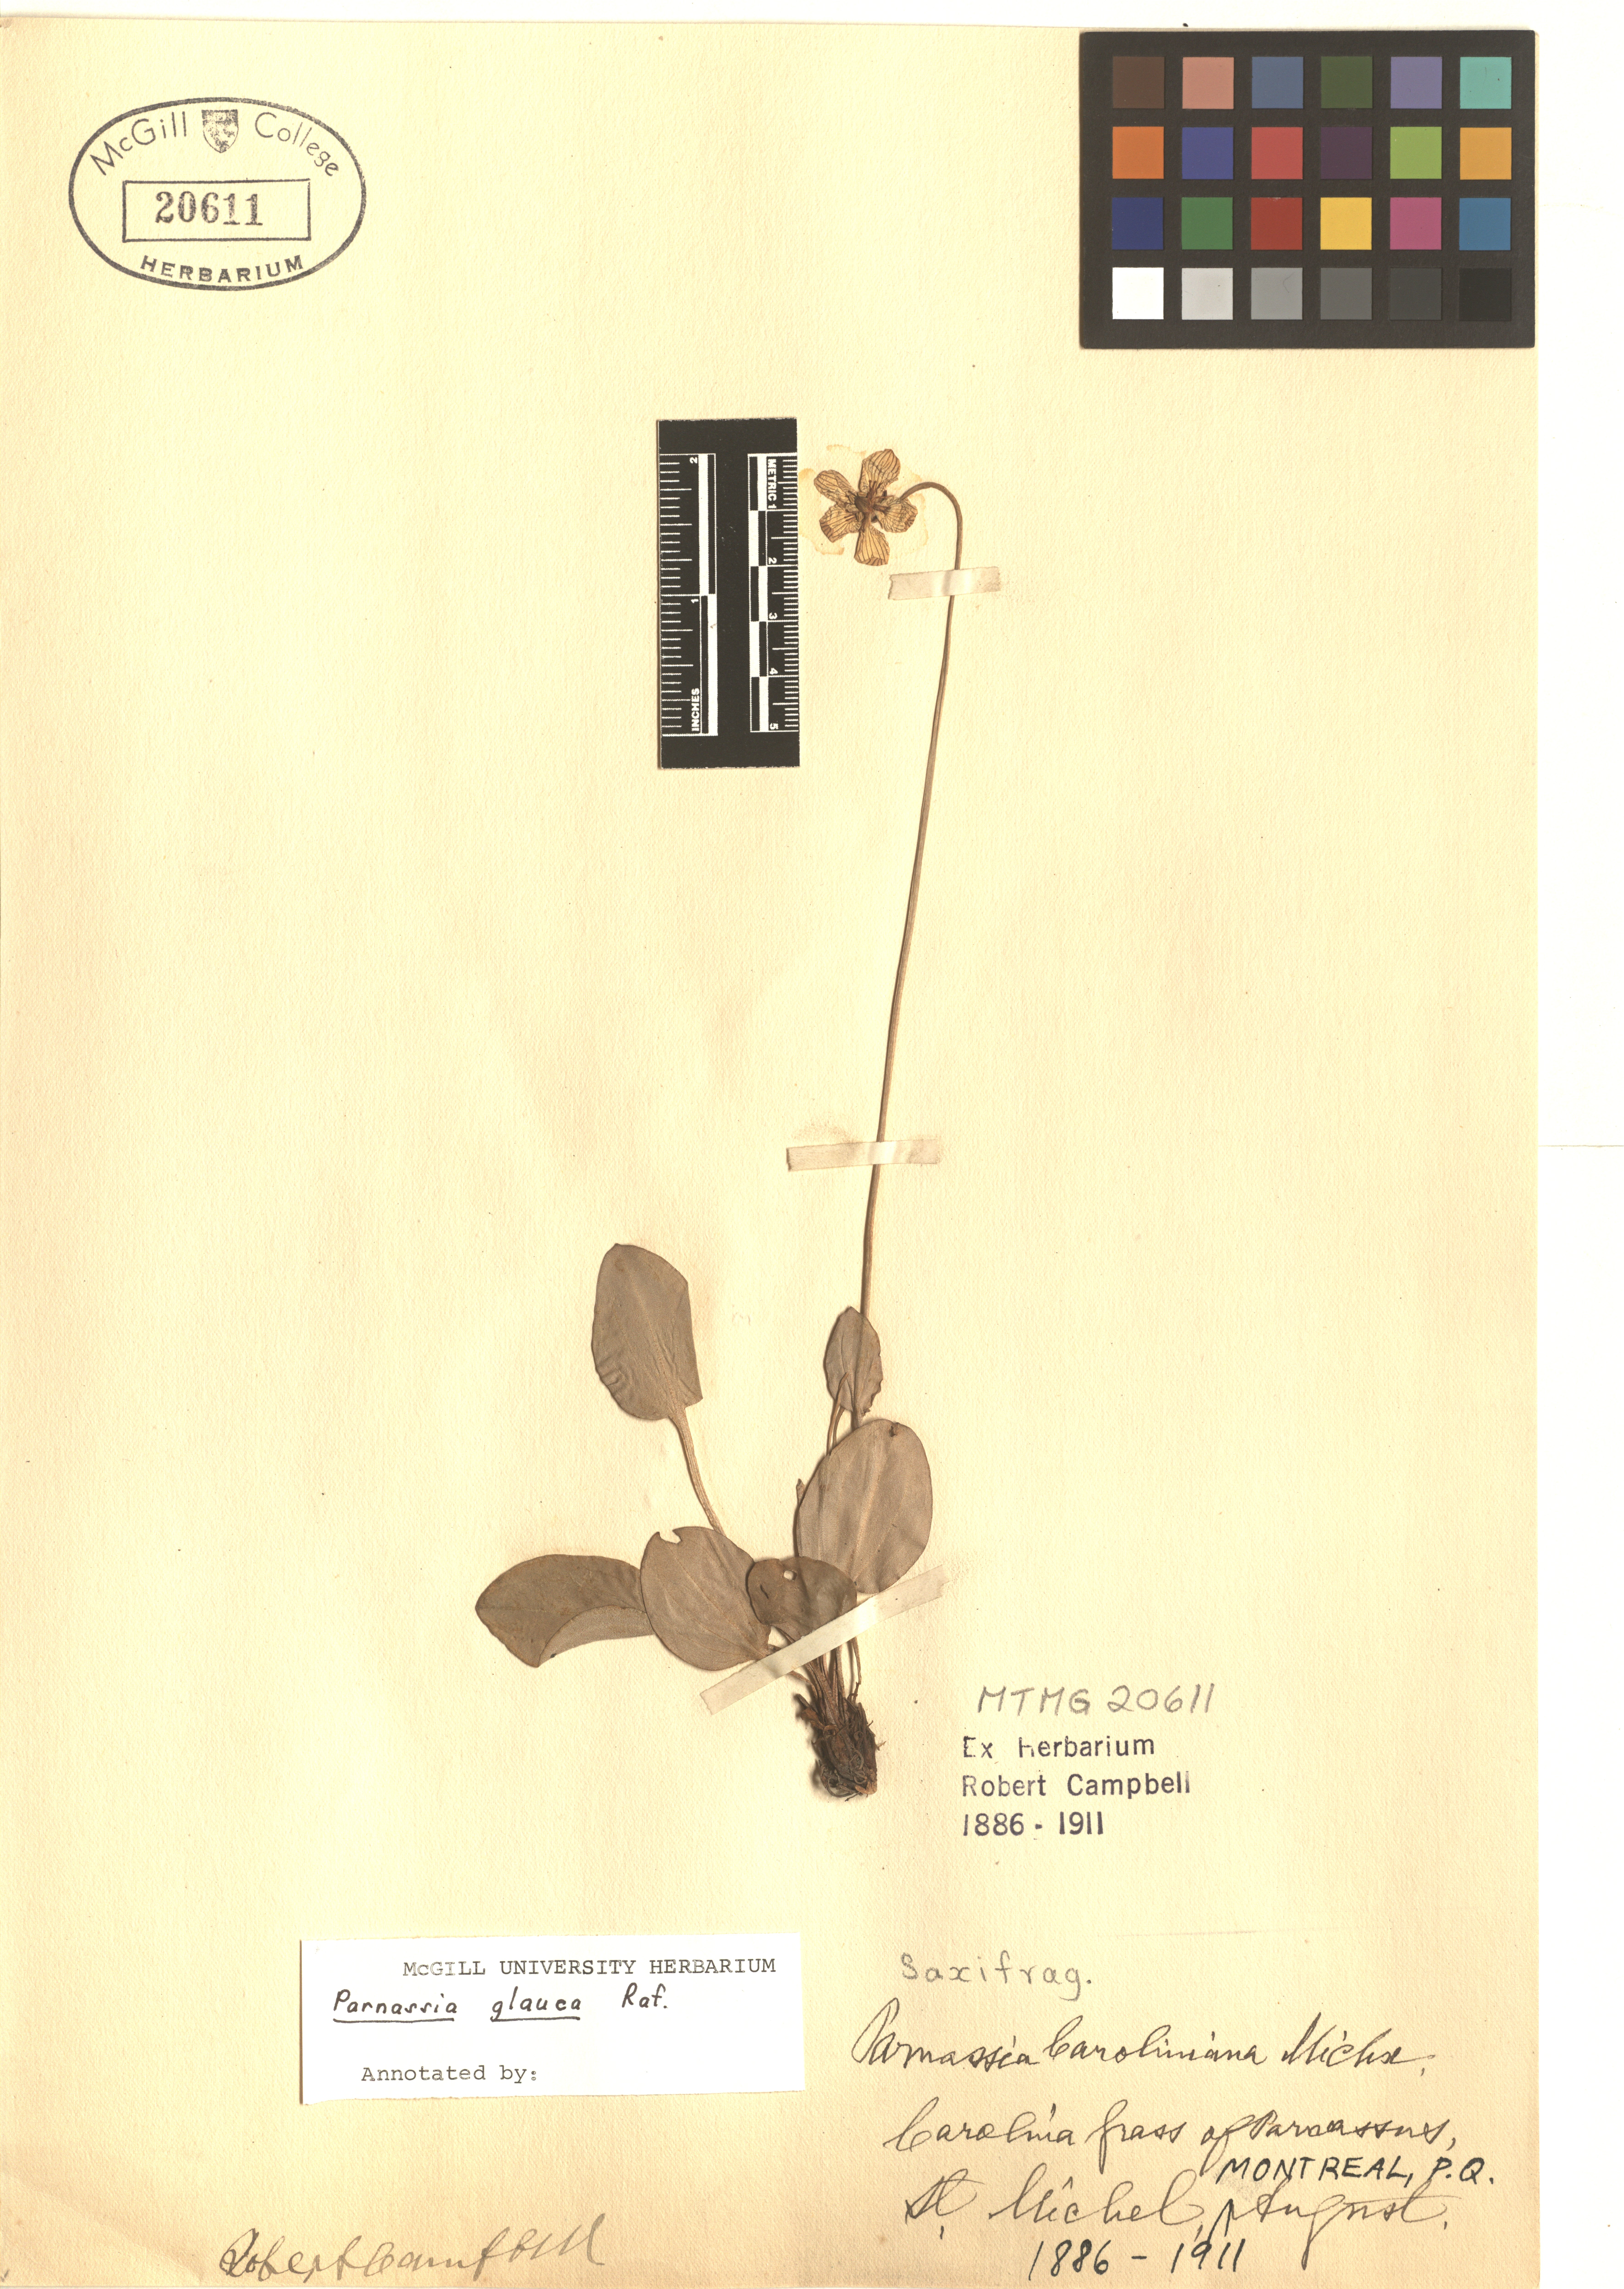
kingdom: Plantae
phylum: Tracheophyta
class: Magnoliopsida
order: Celastrales
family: Parnassiaceae
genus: Parnassia
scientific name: Parnassia glauca
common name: American grass-of-parnassus
